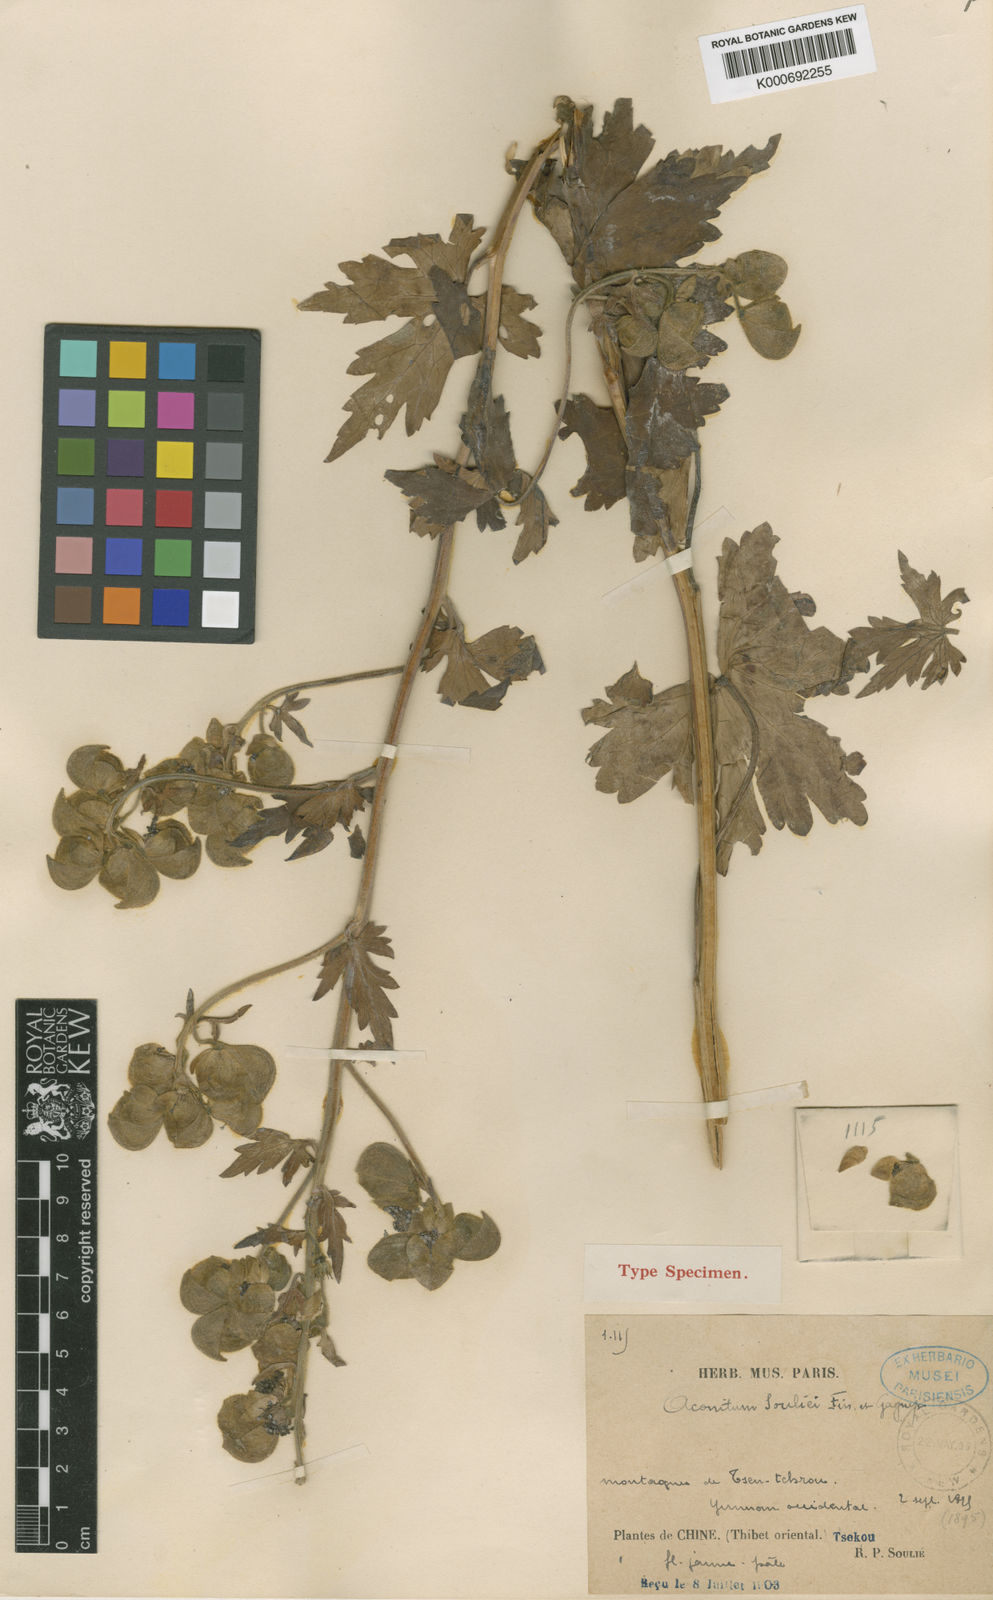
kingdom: Plantae
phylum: Tracheophyta
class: Magnoliopsida
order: Ranunculales
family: Ranunculaceae
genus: Aconitum
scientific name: Aconitum souliei
